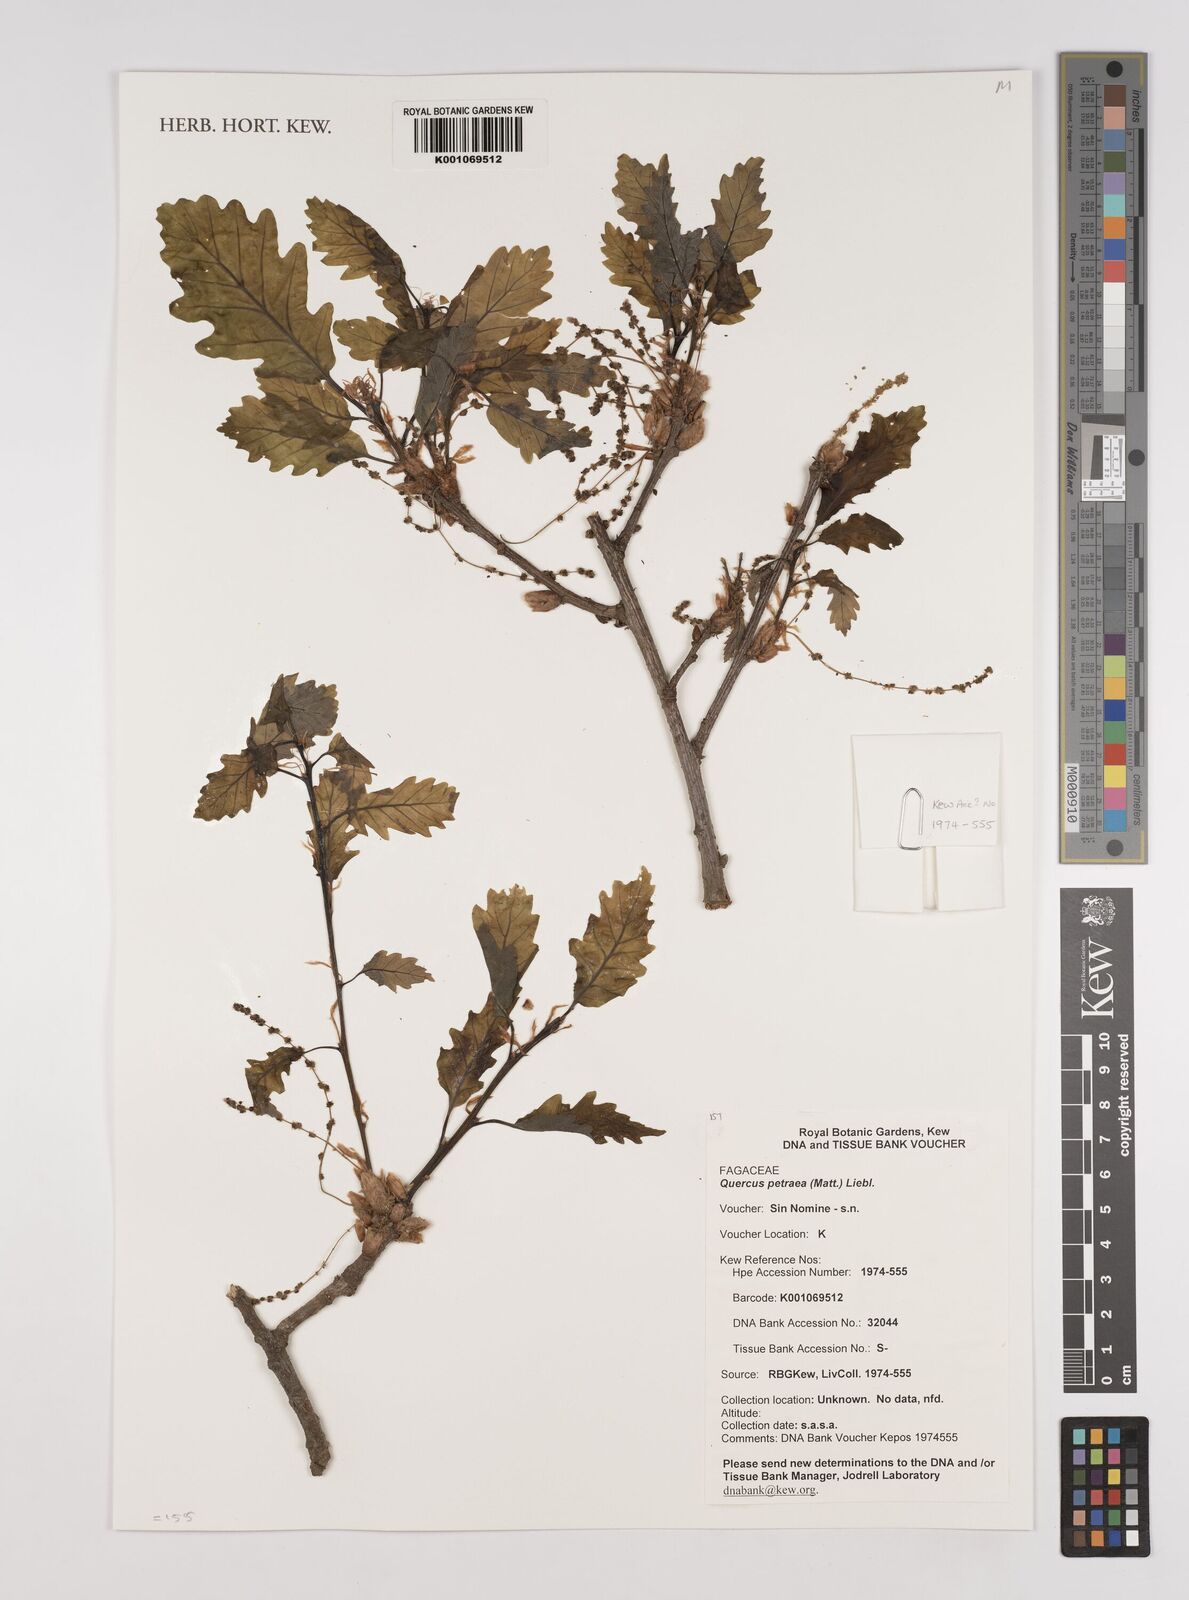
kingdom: Plantae
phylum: Tracheophyta
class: Magnoliopsida
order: Fagales
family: Fagaceae
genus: Quercus
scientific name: Quercus petraea
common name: Sessile oak
